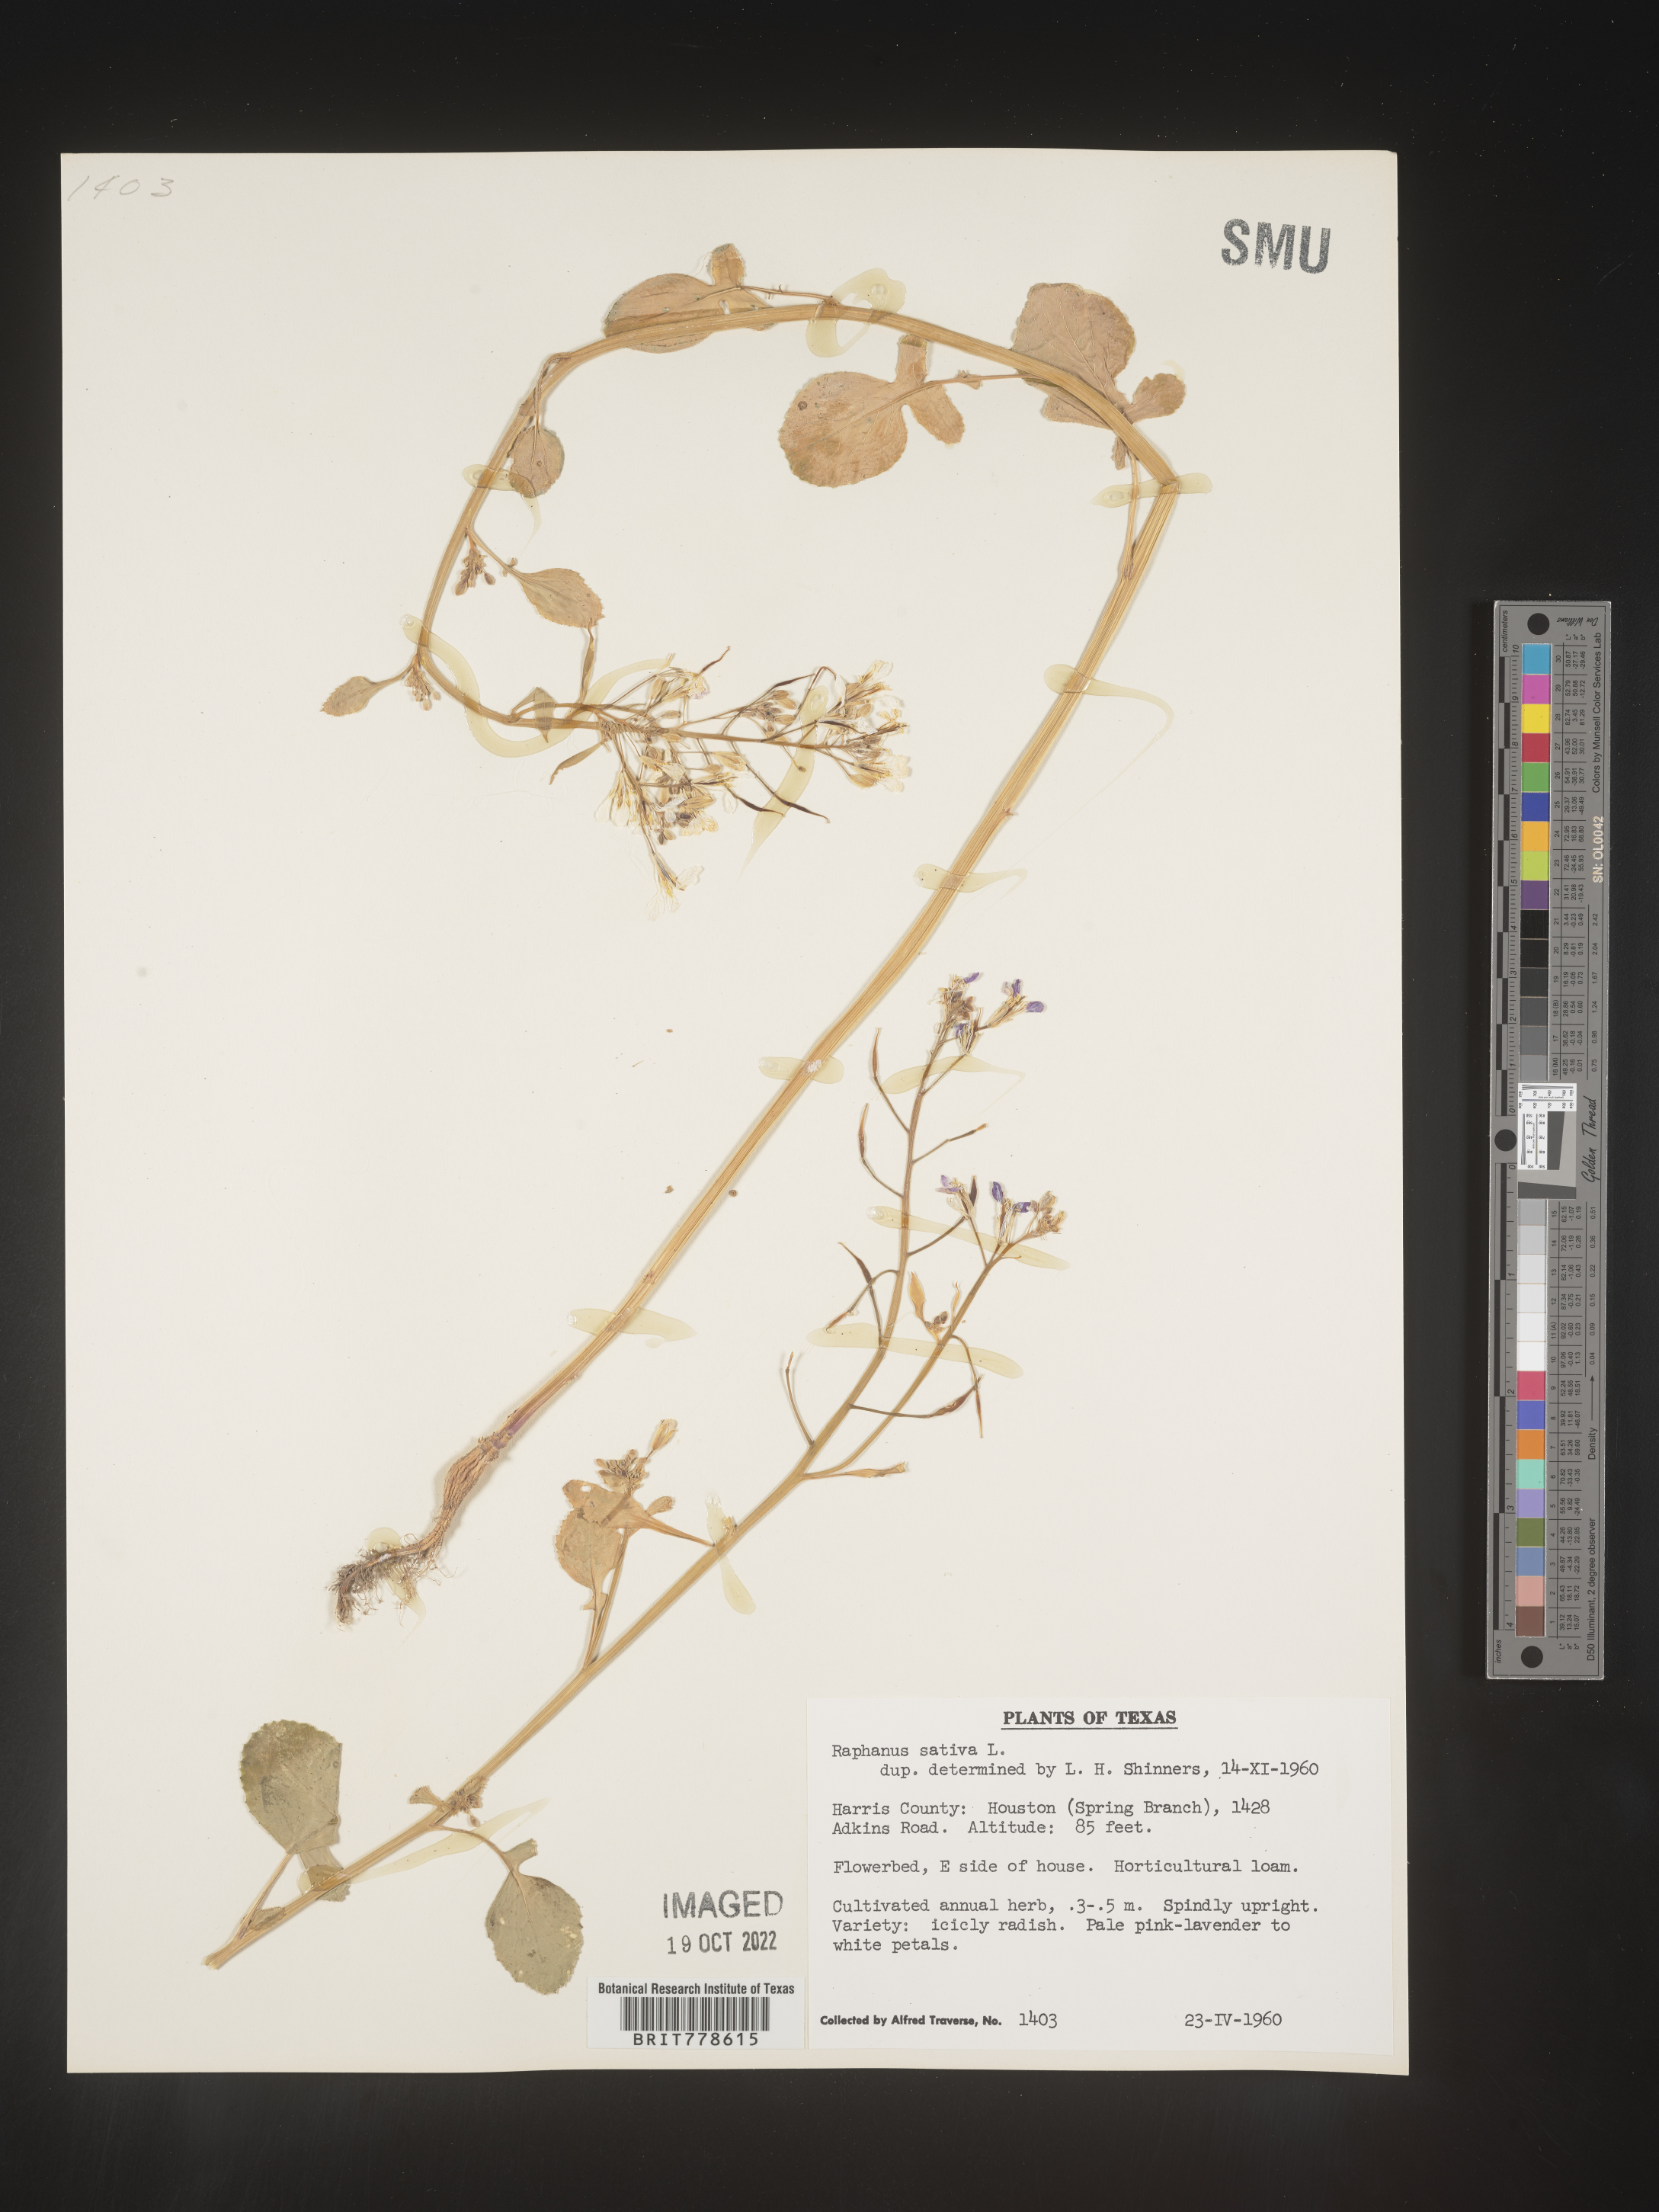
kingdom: Plantae
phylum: Tracheophyta
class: Magnoliopsida
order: Brassicales
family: Brassicaceae
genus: Raphanus
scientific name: Raphanus
